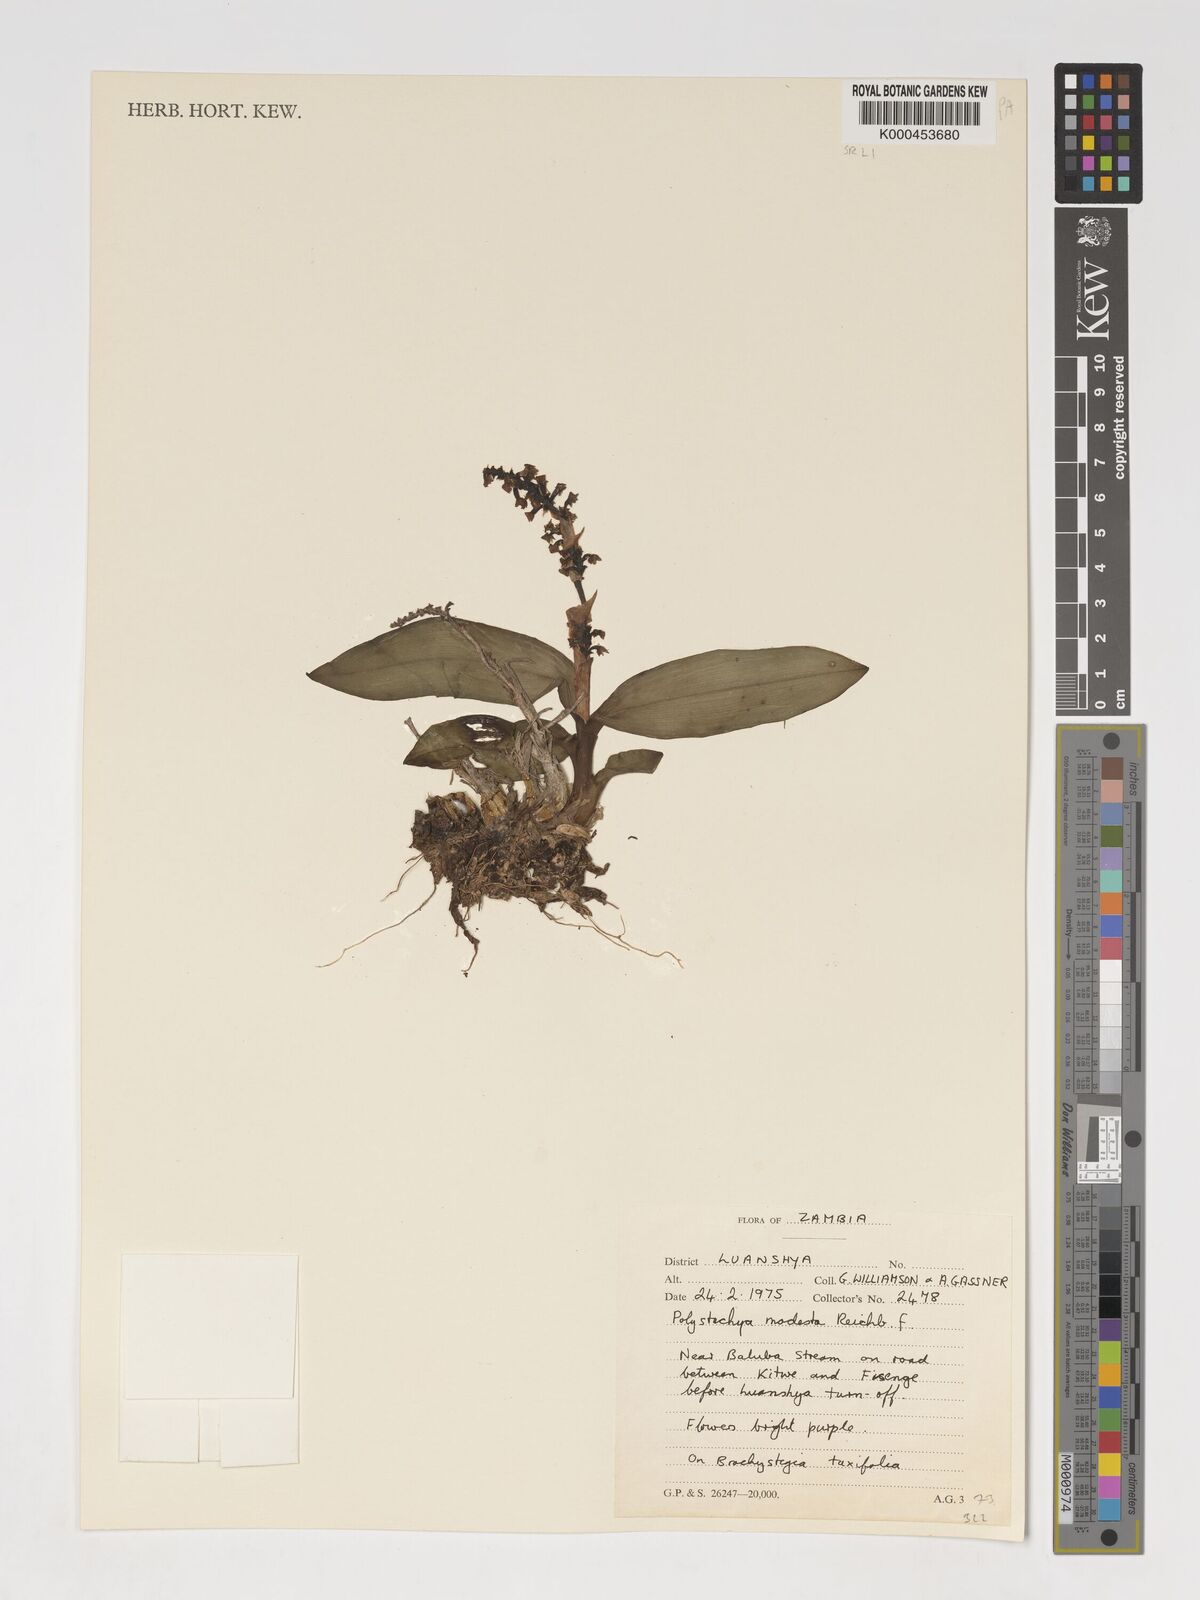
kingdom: Plantae
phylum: Tracheophyta
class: Liliopsida
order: Asparagales
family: Orchidaceae
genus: Polystachya
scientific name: Polystachya modesta
